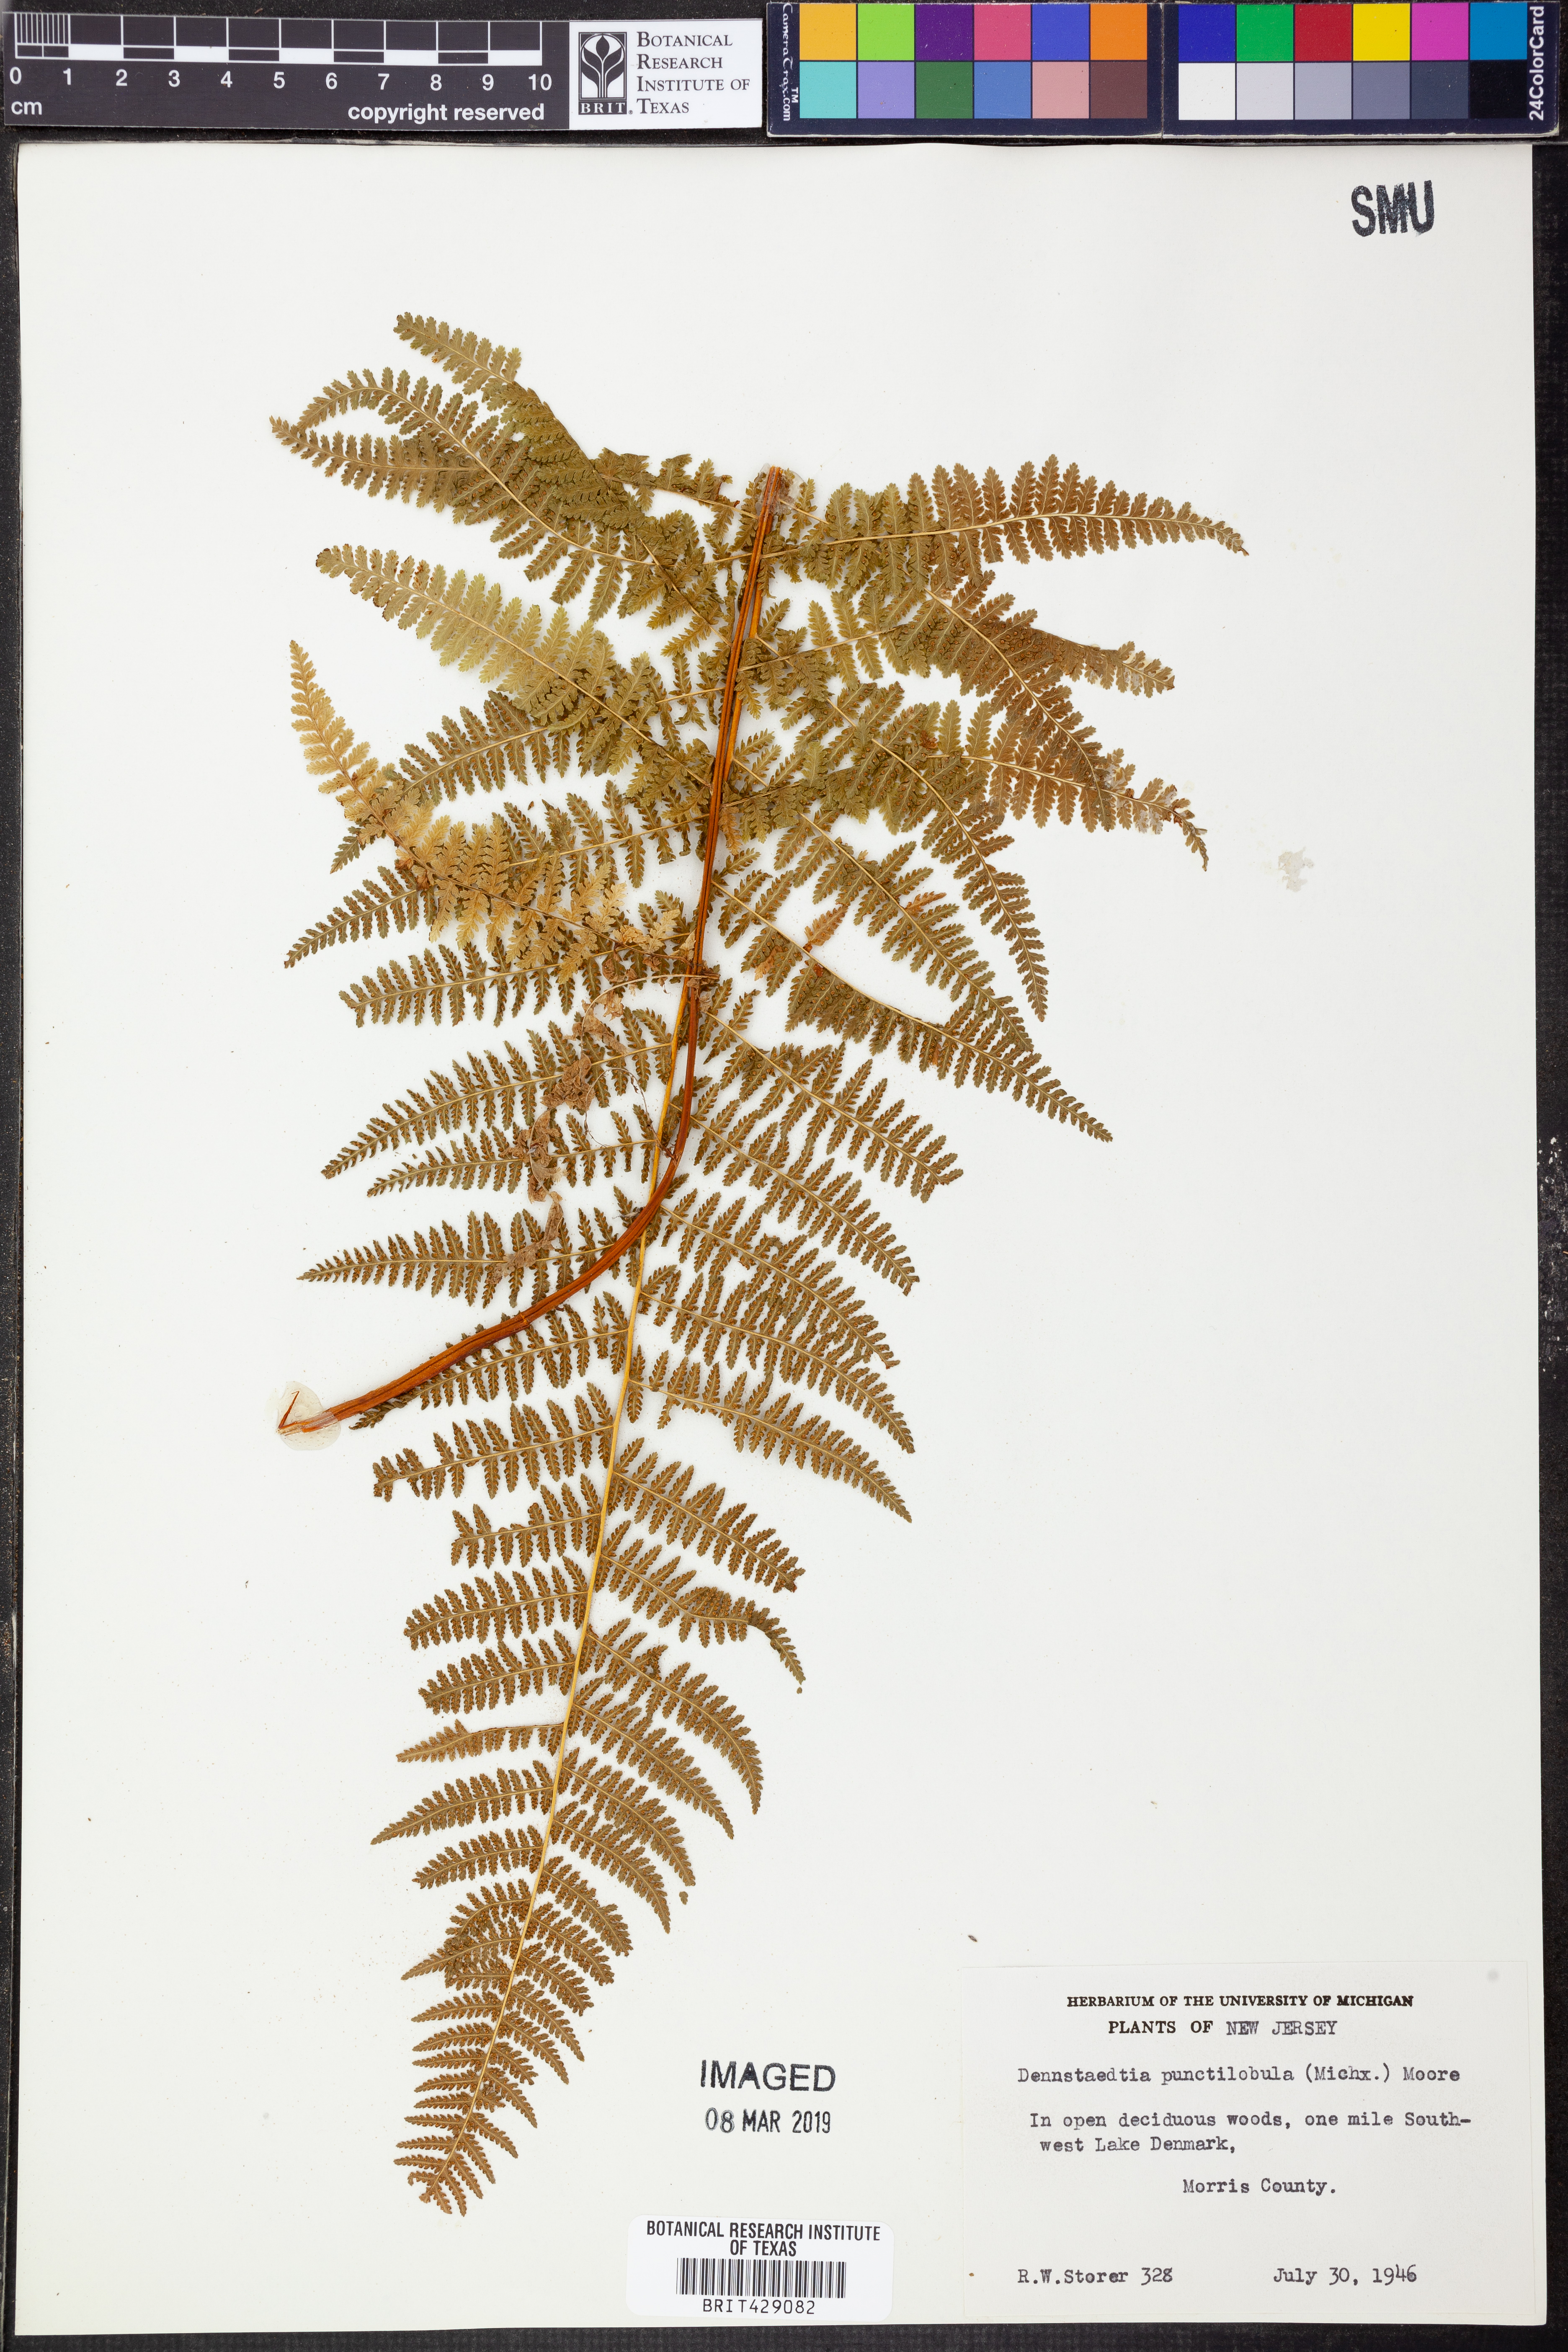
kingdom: Plantae
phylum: Tracheophyta
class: Polypodiopsida
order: Polypodiales
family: Dennstaedtiaceae
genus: Sitobolium
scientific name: Sitobolium punctilobum
